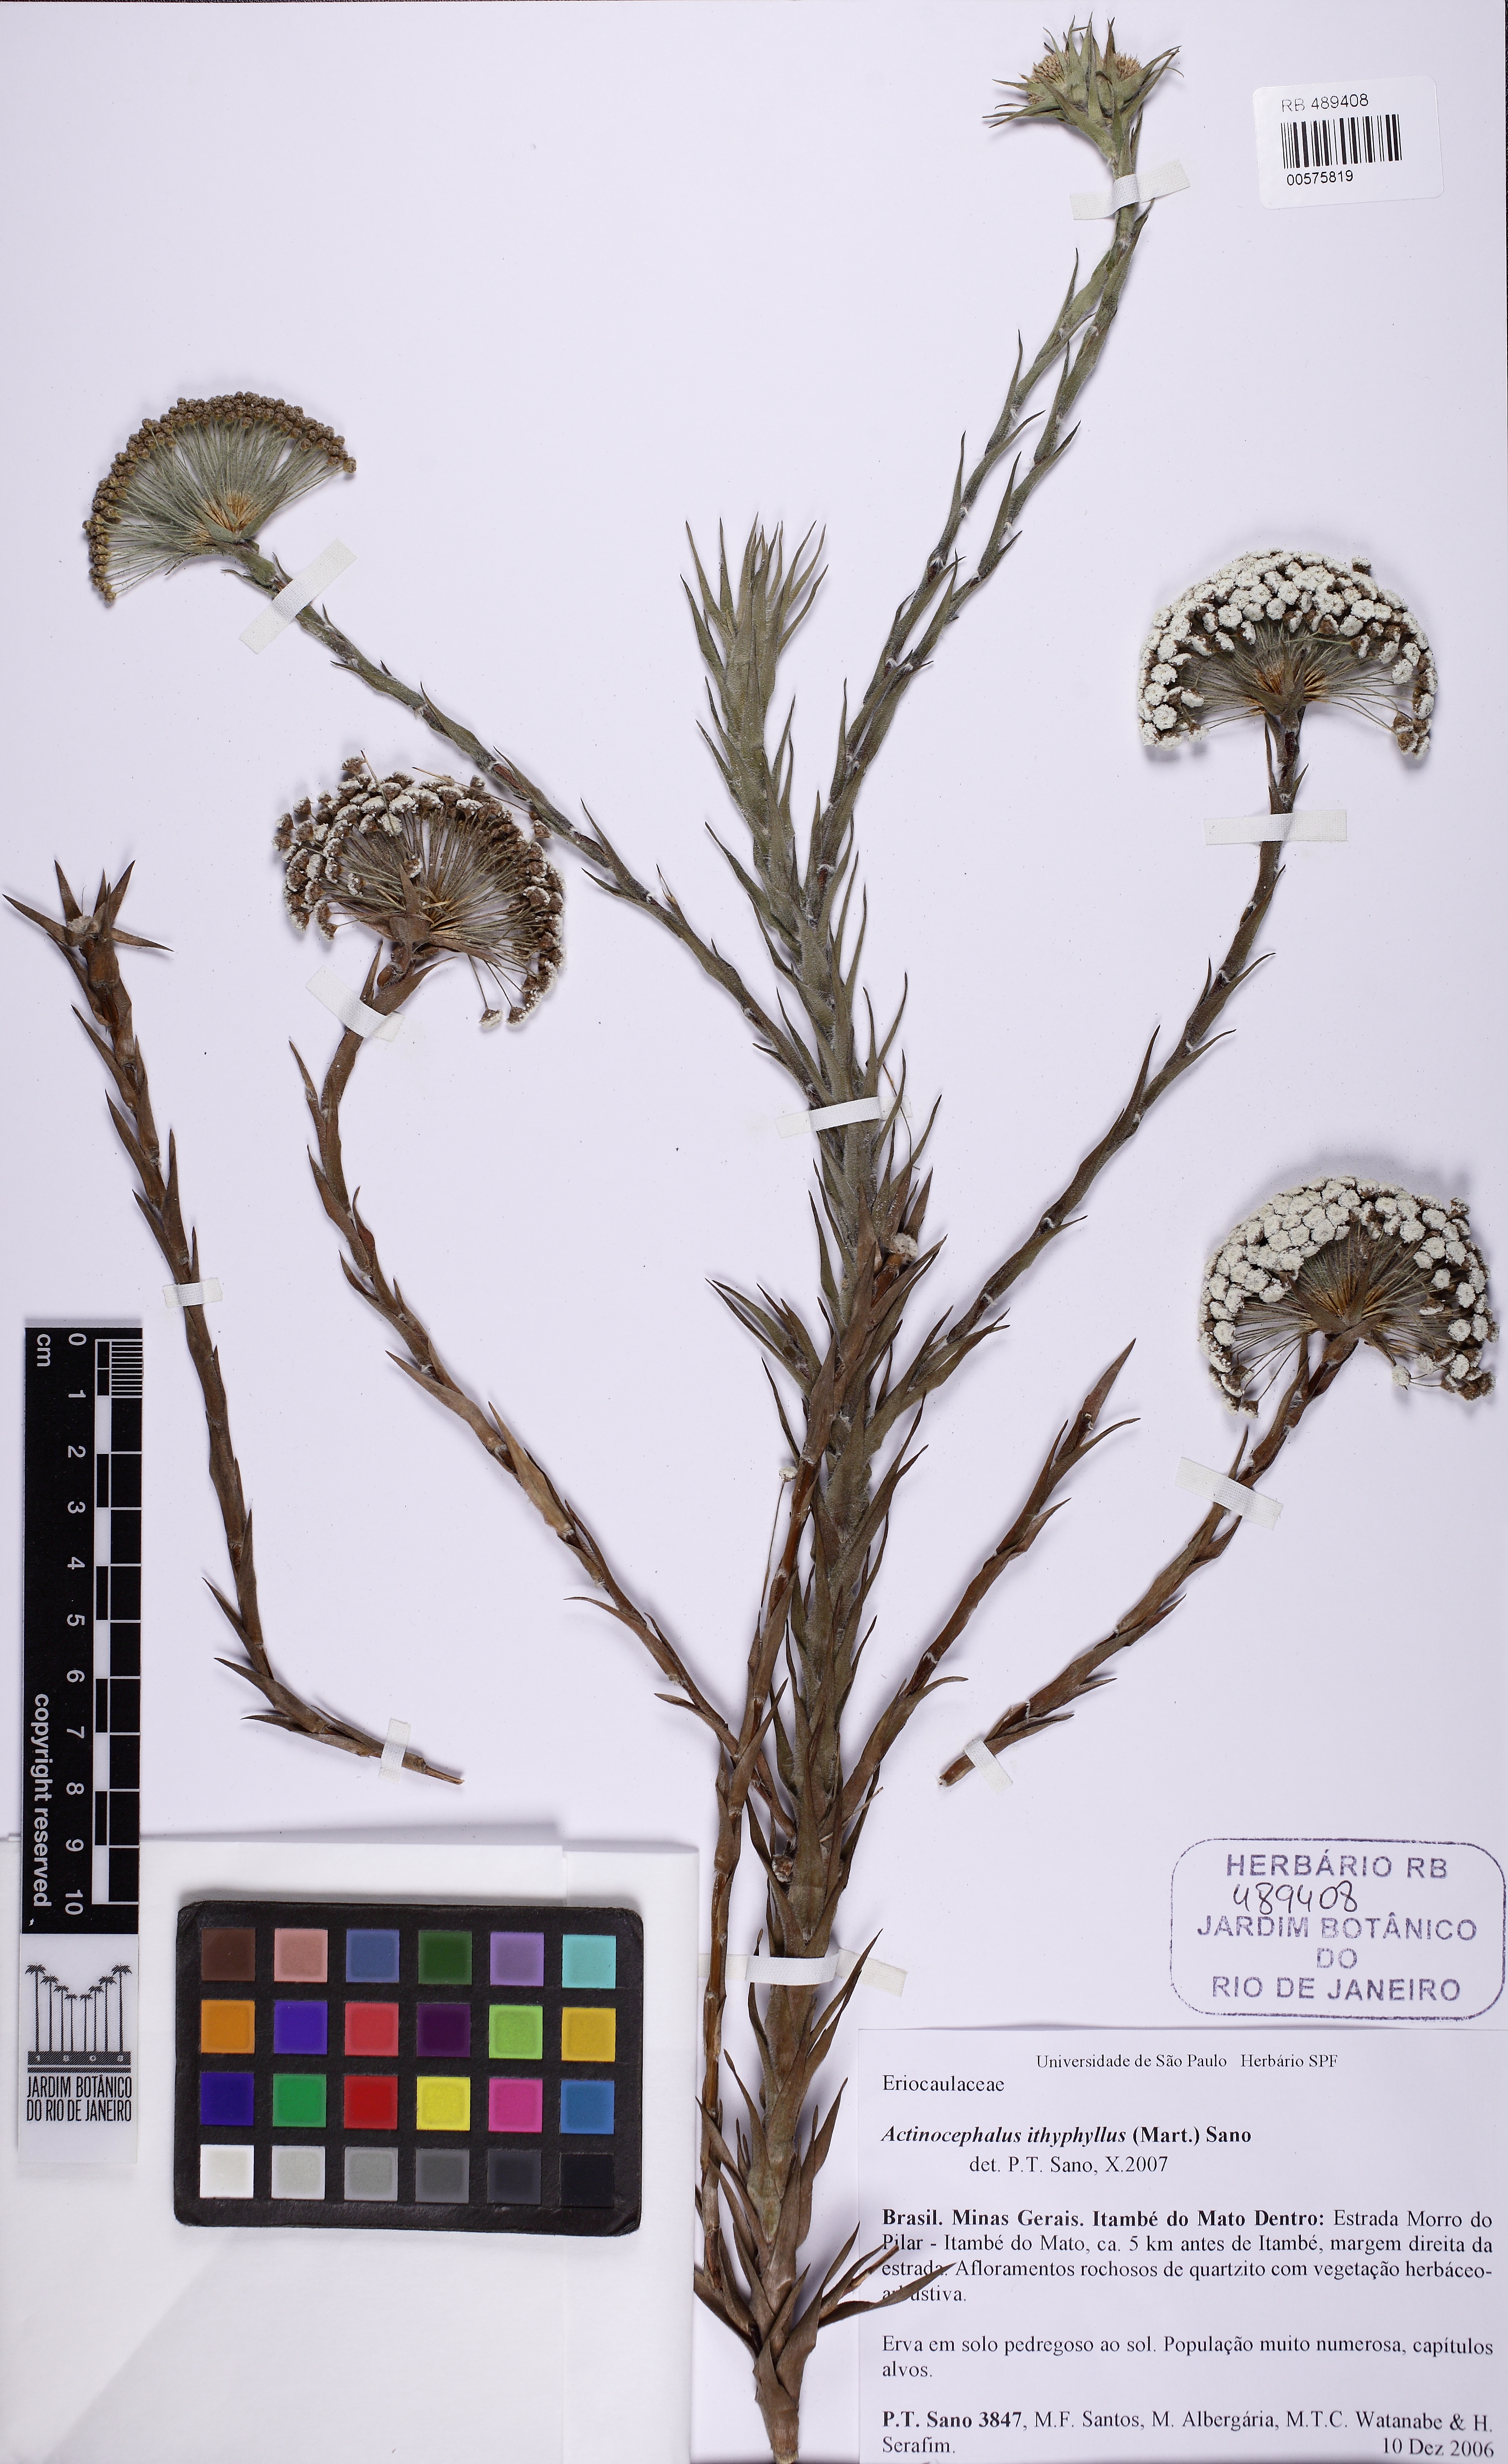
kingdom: Plantae
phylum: Tracheophyta
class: Liliopsida
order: Poales
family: Eriocaulaceae
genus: Paepalanthus
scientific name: Paepalanthus ithyphyllus
